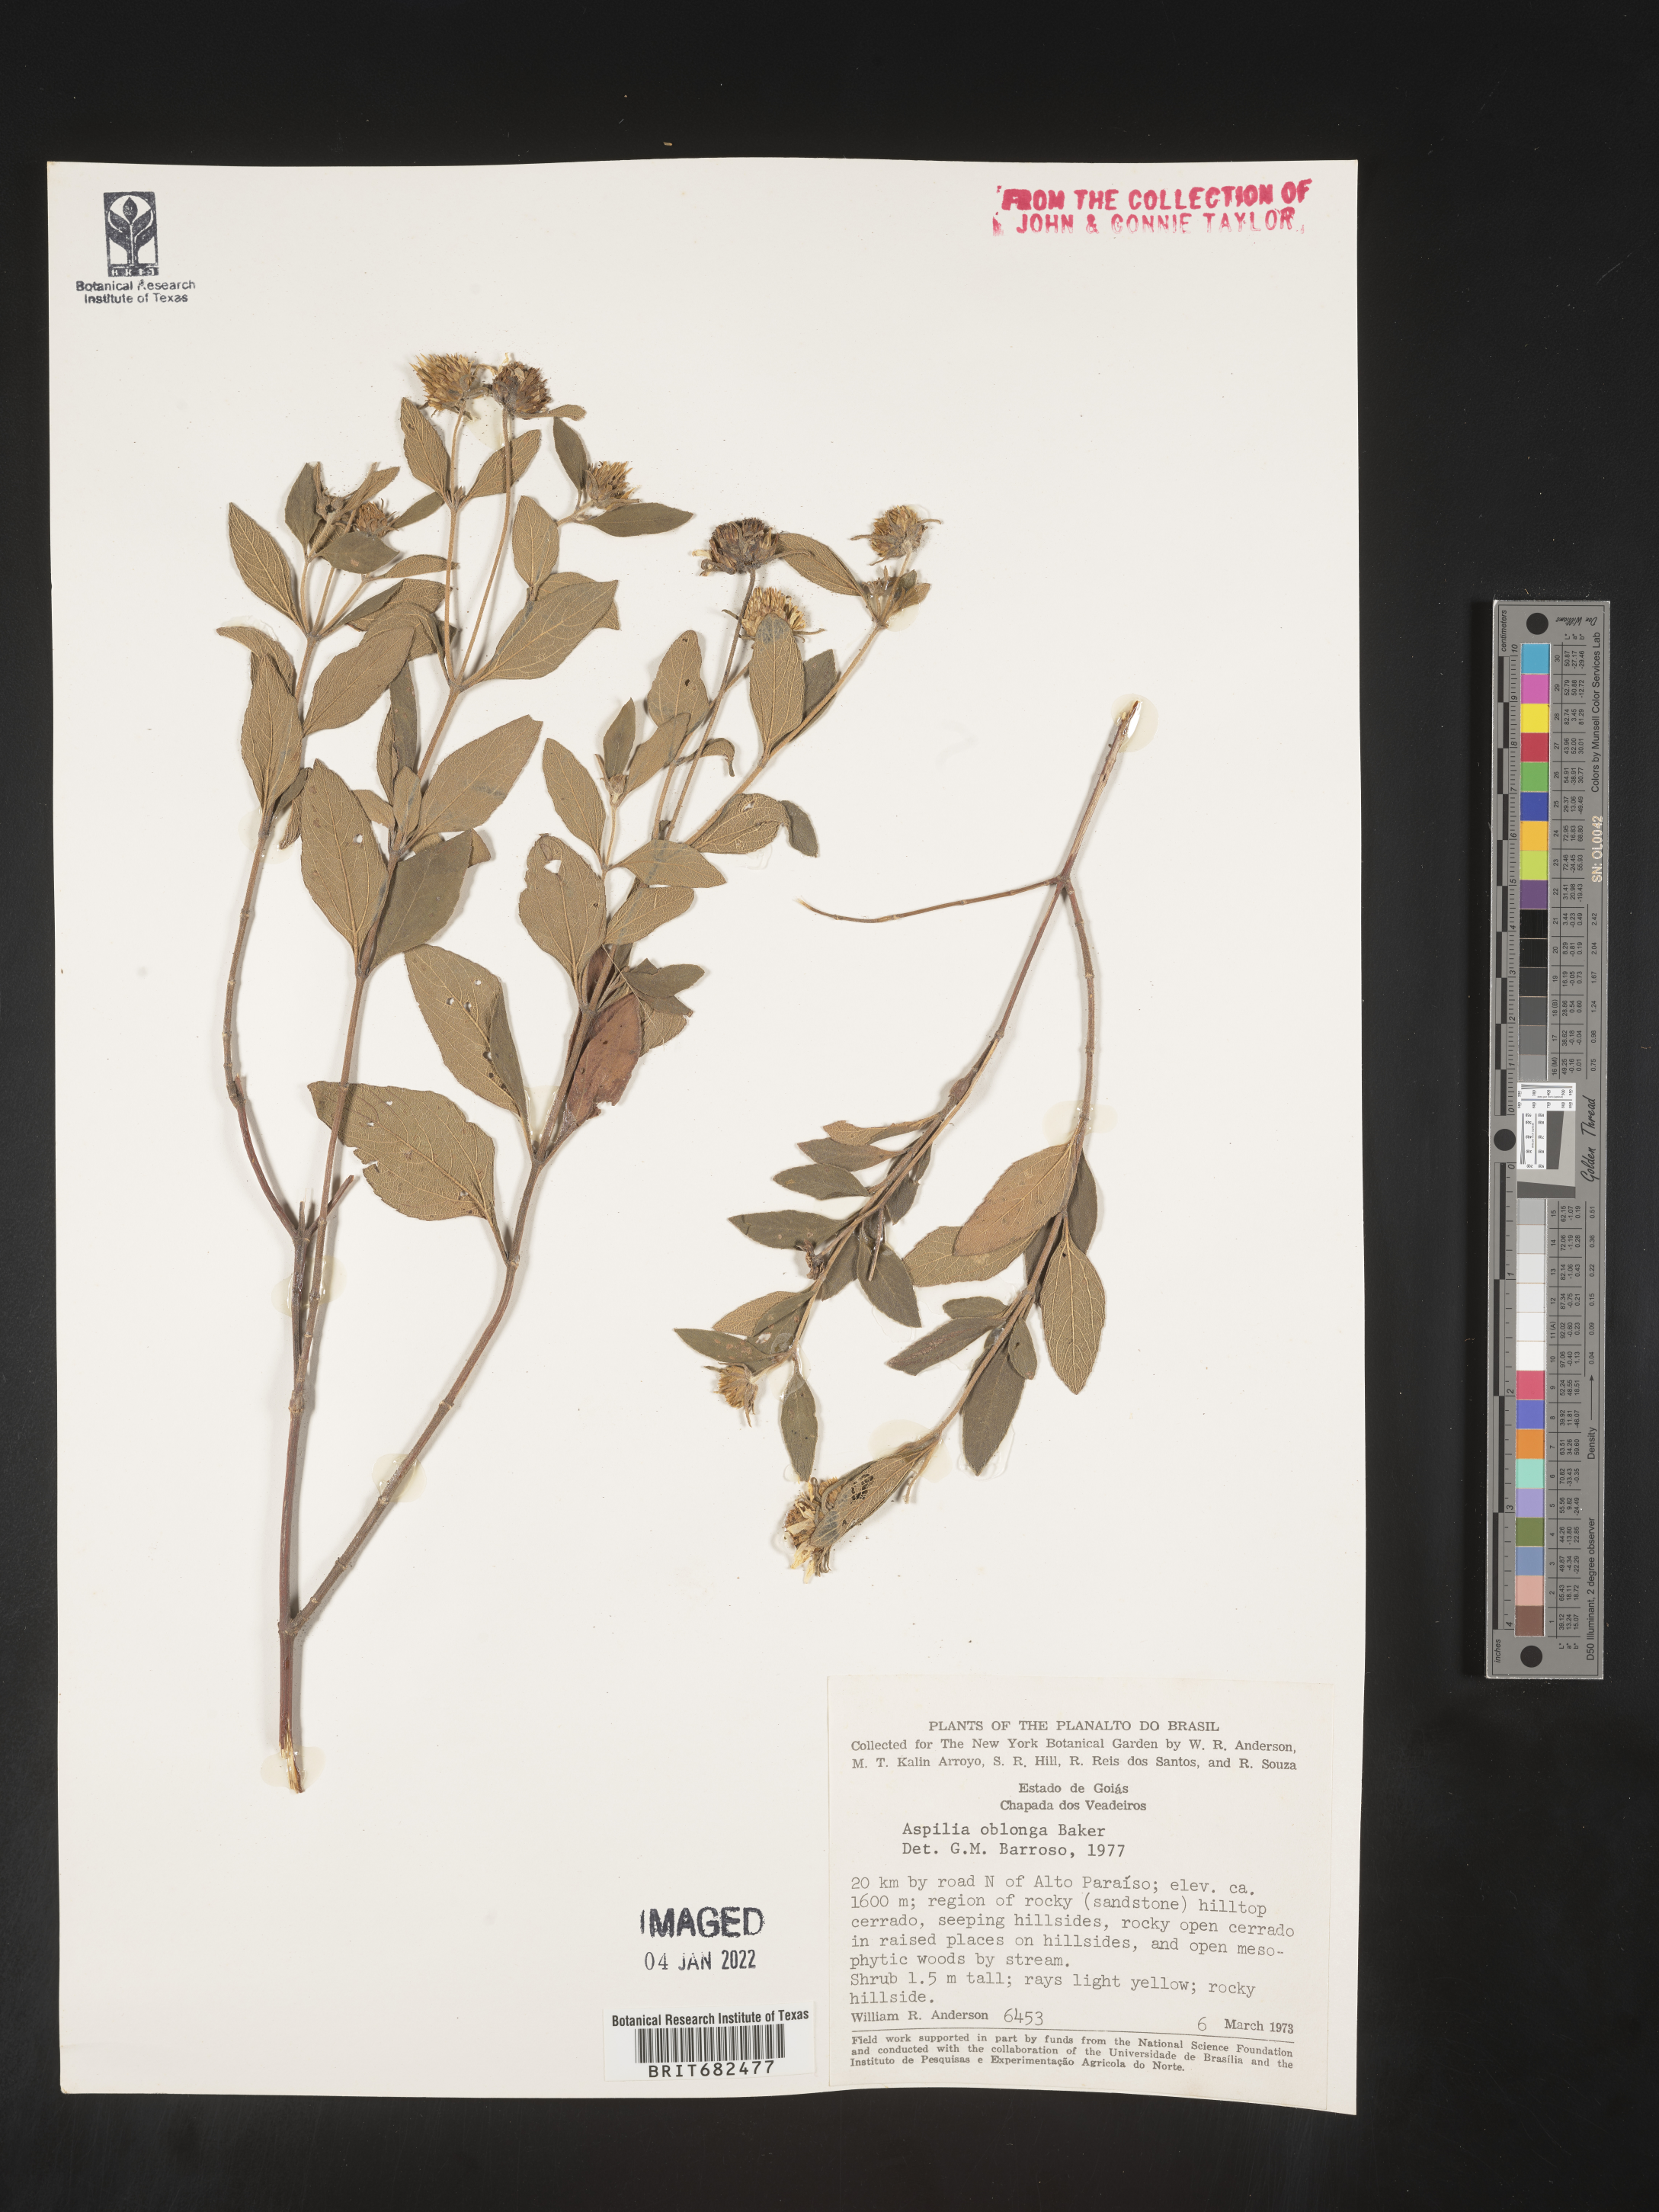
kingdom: Plantae
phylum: Tracheophyta
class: Magnoliopsida
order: Asterales
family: Asteraceae
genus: Aspilia
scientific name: Aspilia
